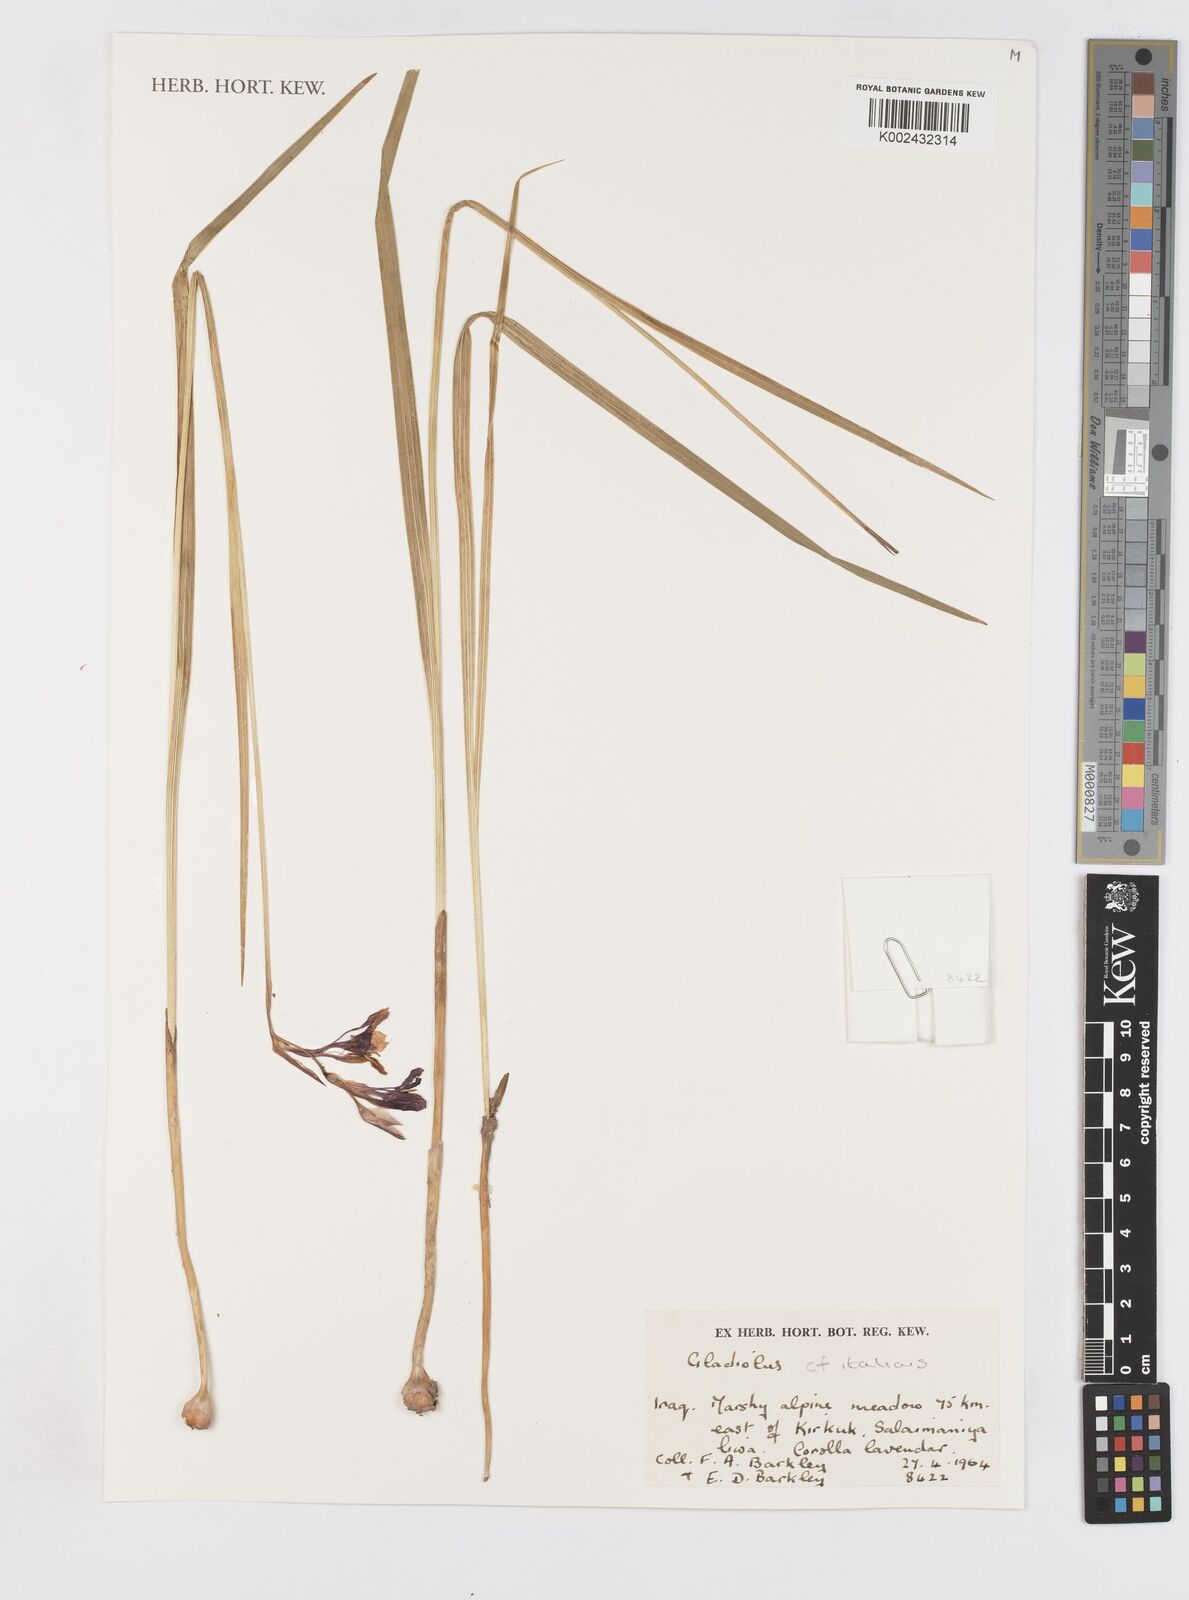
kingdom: Plantae
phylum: Tracheophyta
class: Liliopsida
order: Asparagales
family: Iridaceae
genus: Gladiolus
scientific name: Gladiolus italicus
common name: Field gladiolus
